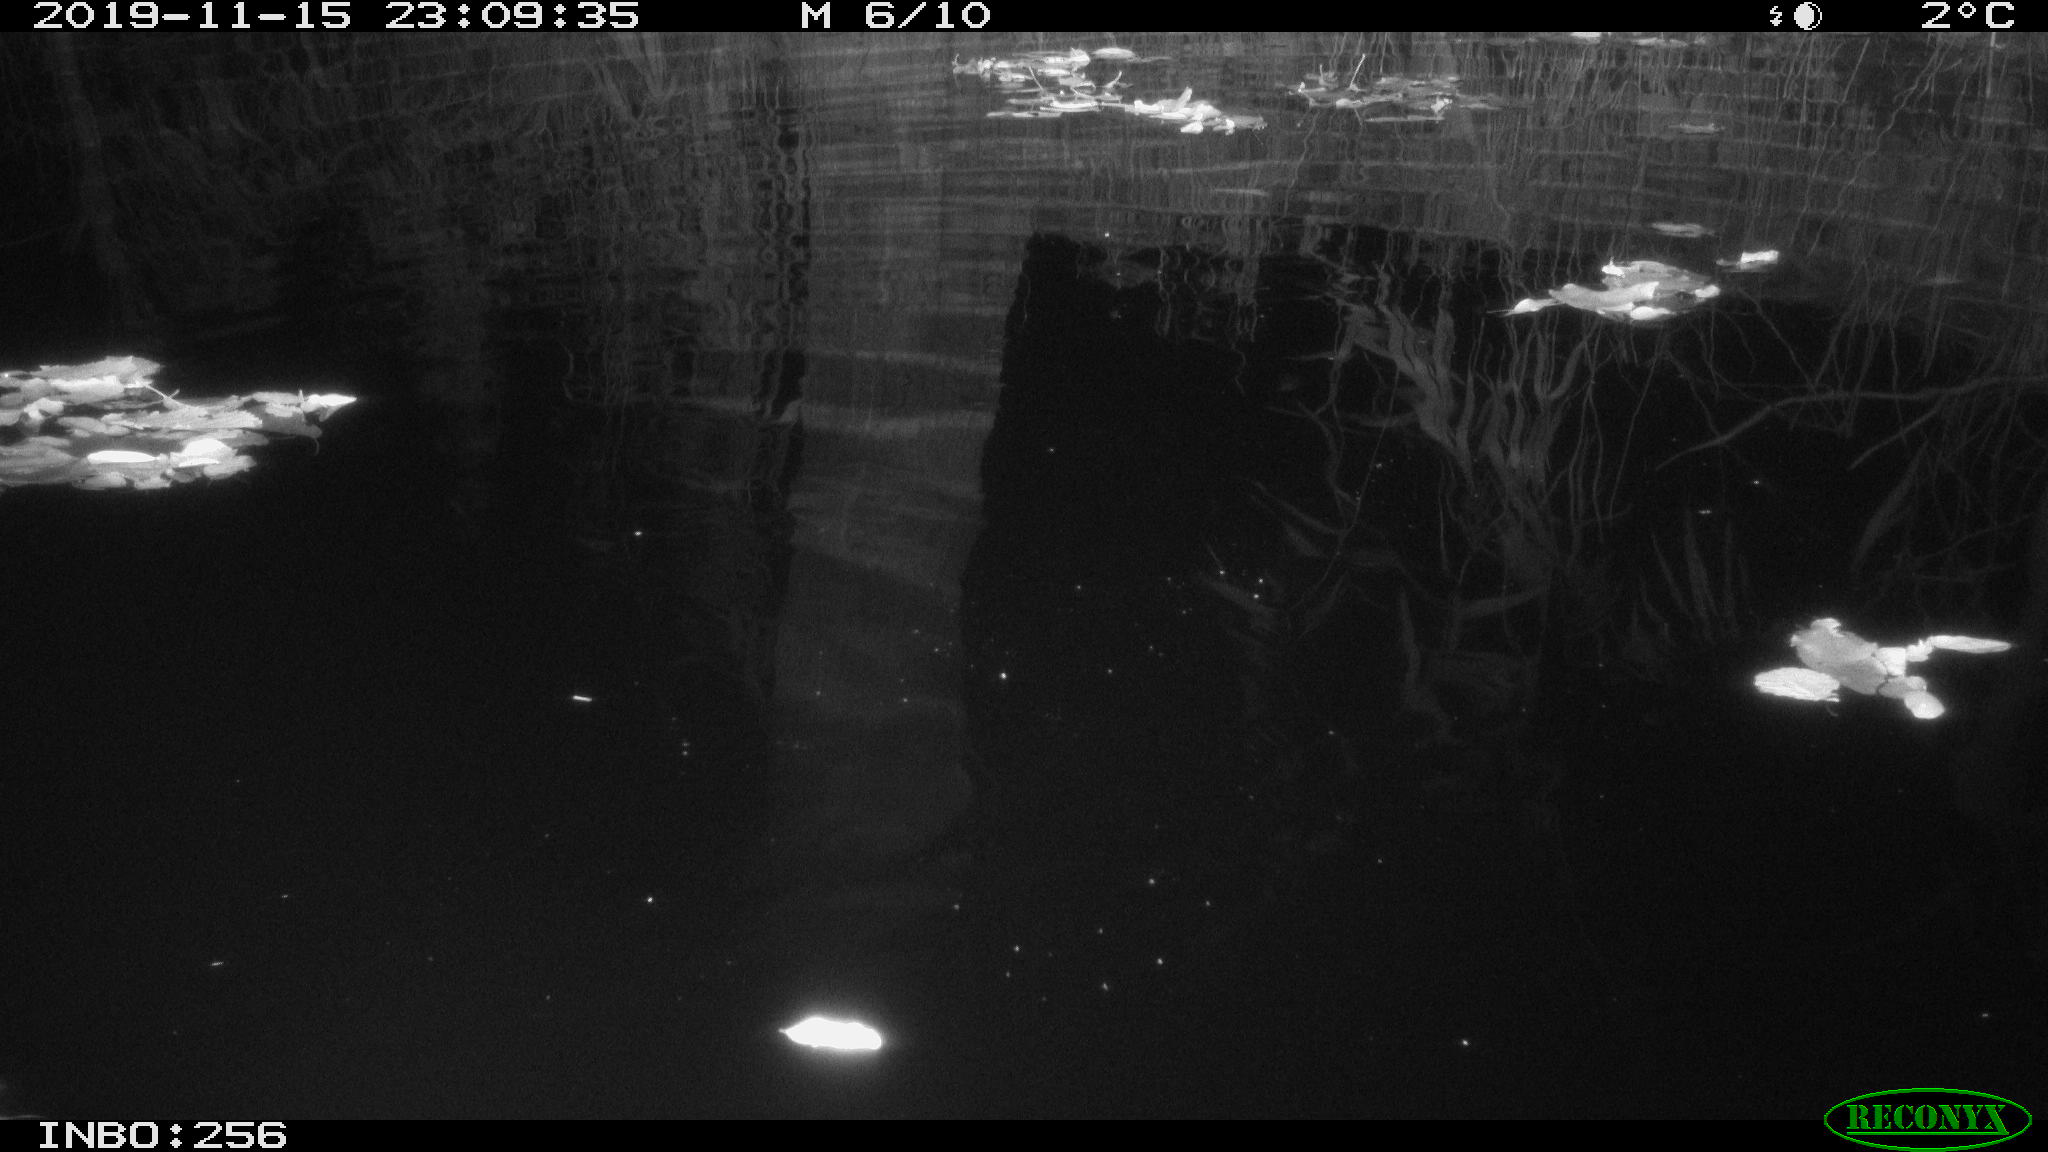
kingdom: Animalia
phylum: Chordata
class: Aves
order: Anseriformes
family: Anatidae
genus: Anas
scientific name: Anas platyrhynchos
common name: Mallard
